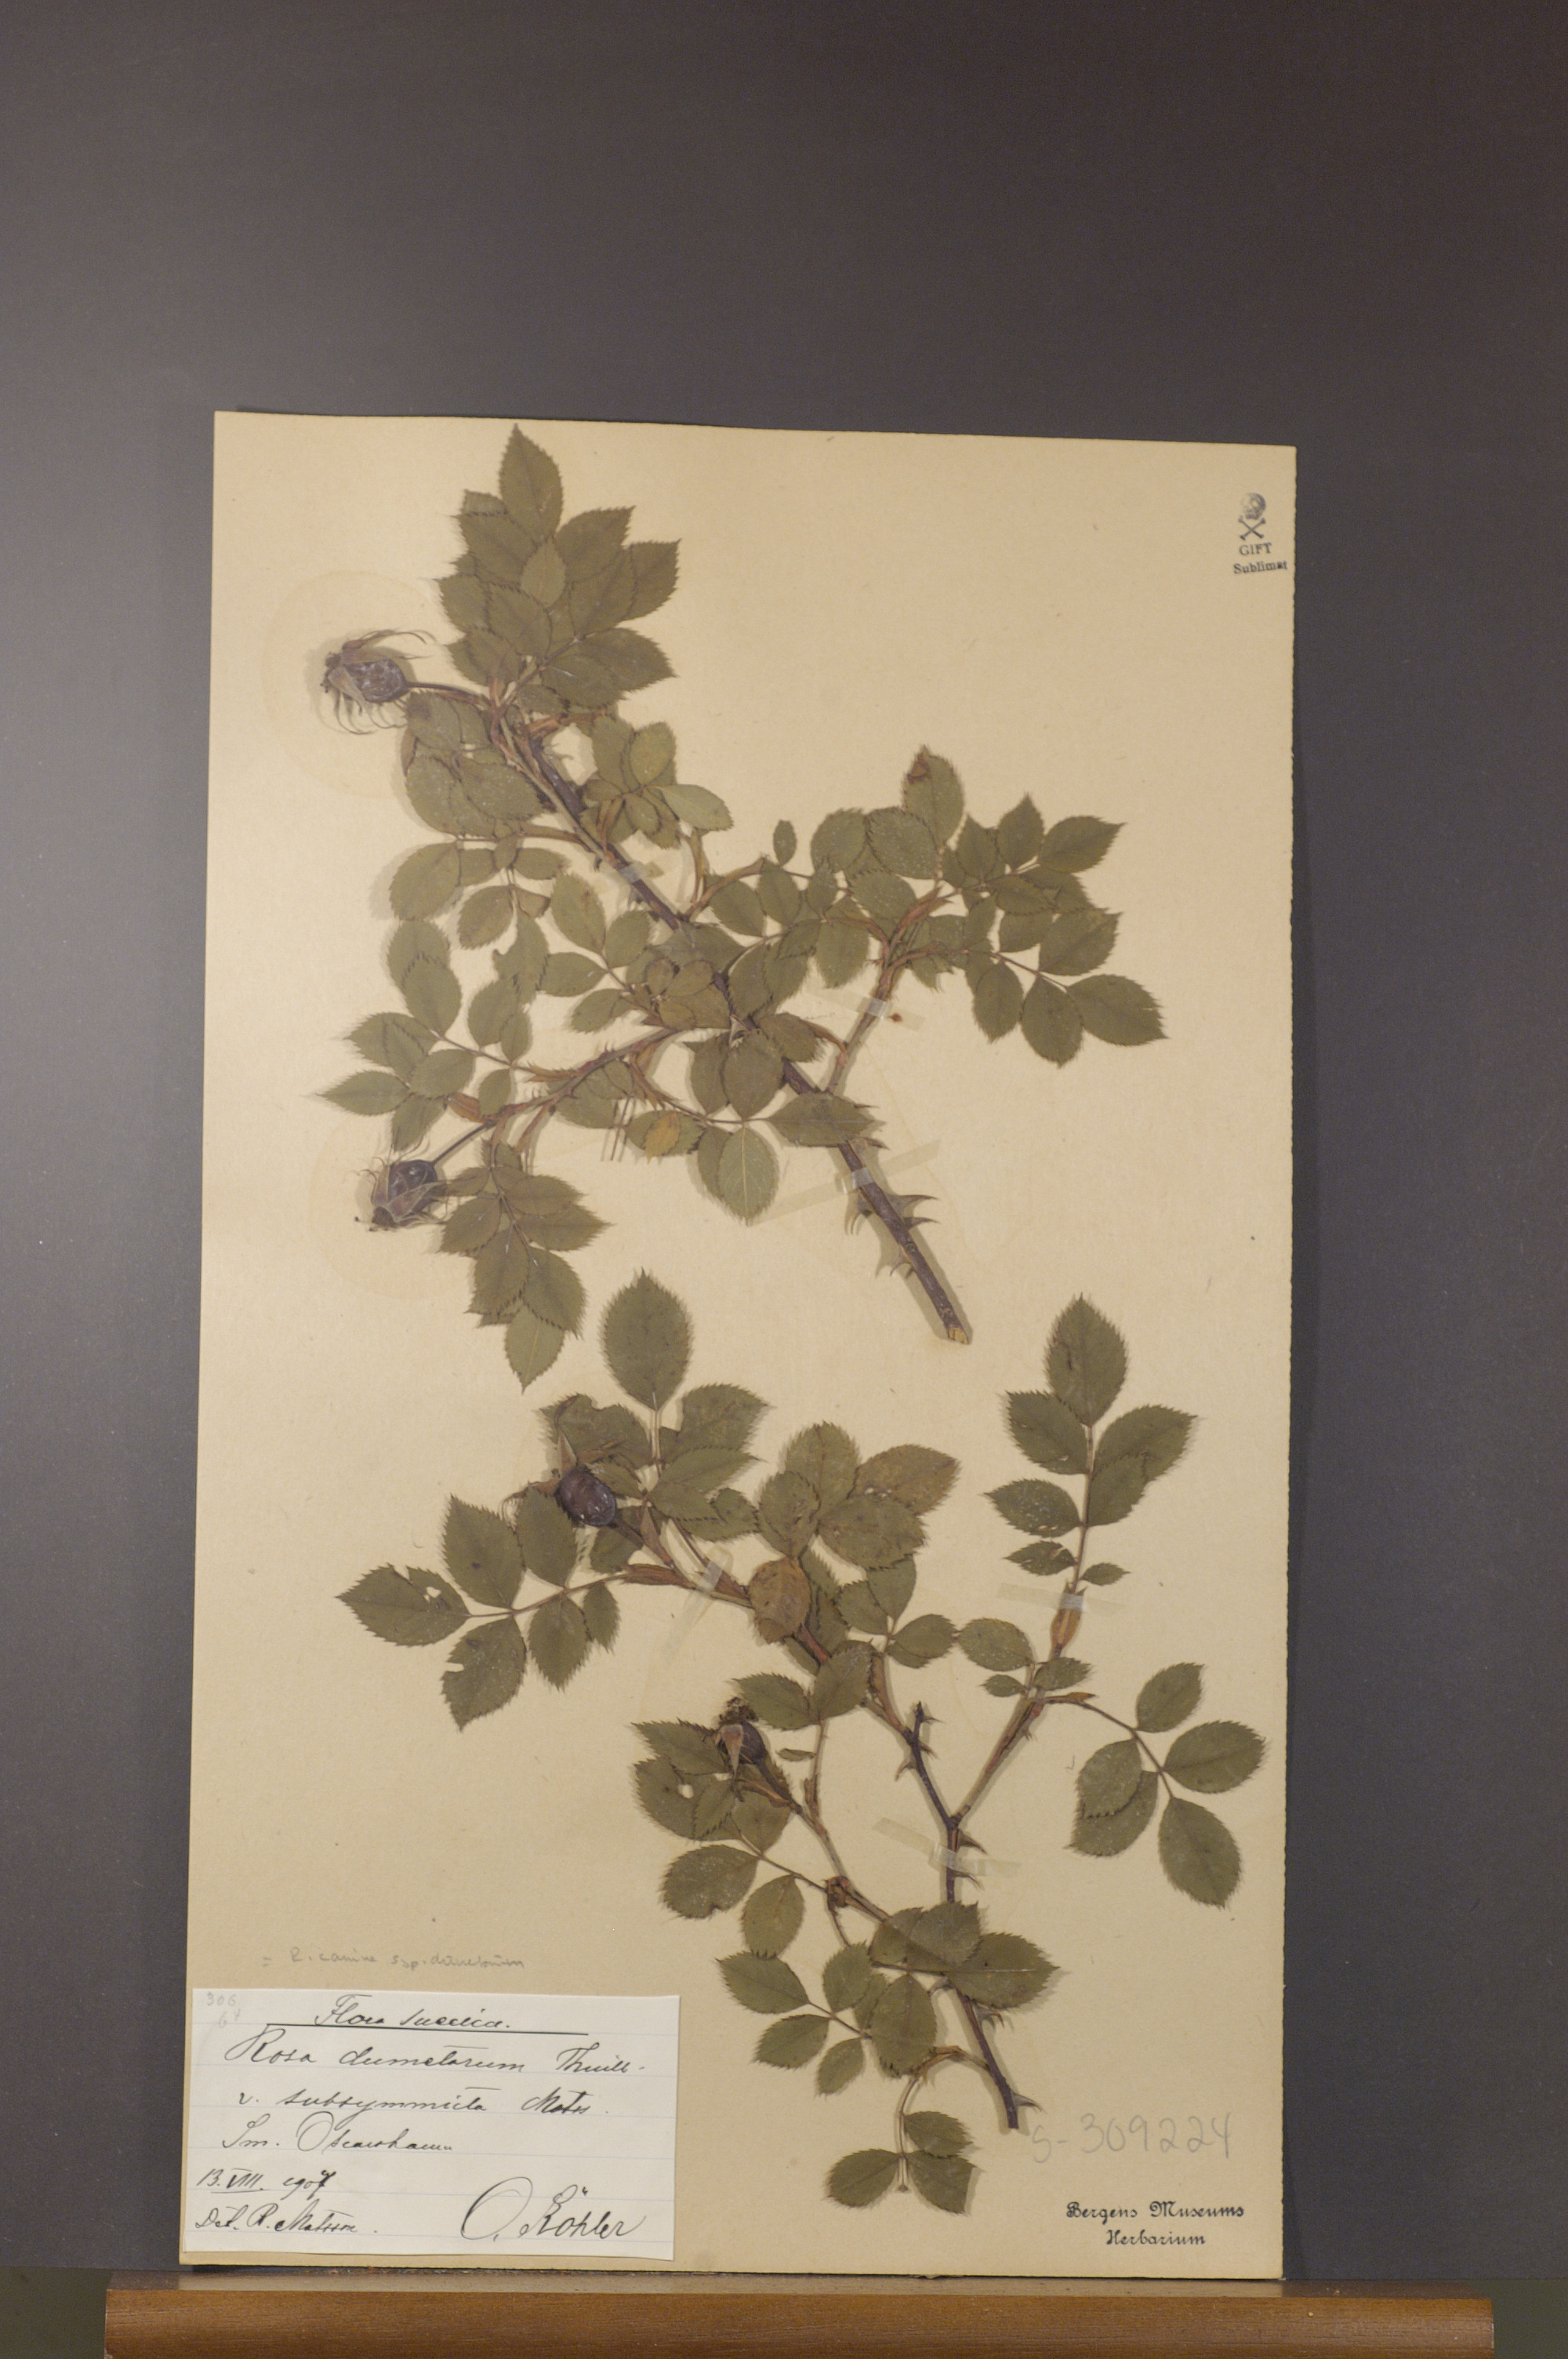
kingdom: Plantae
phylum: Tracheophyta
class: Magnoliopsida
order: Rosales
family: Rosaceae
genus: Rosa
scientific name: Rosa corymbifera
